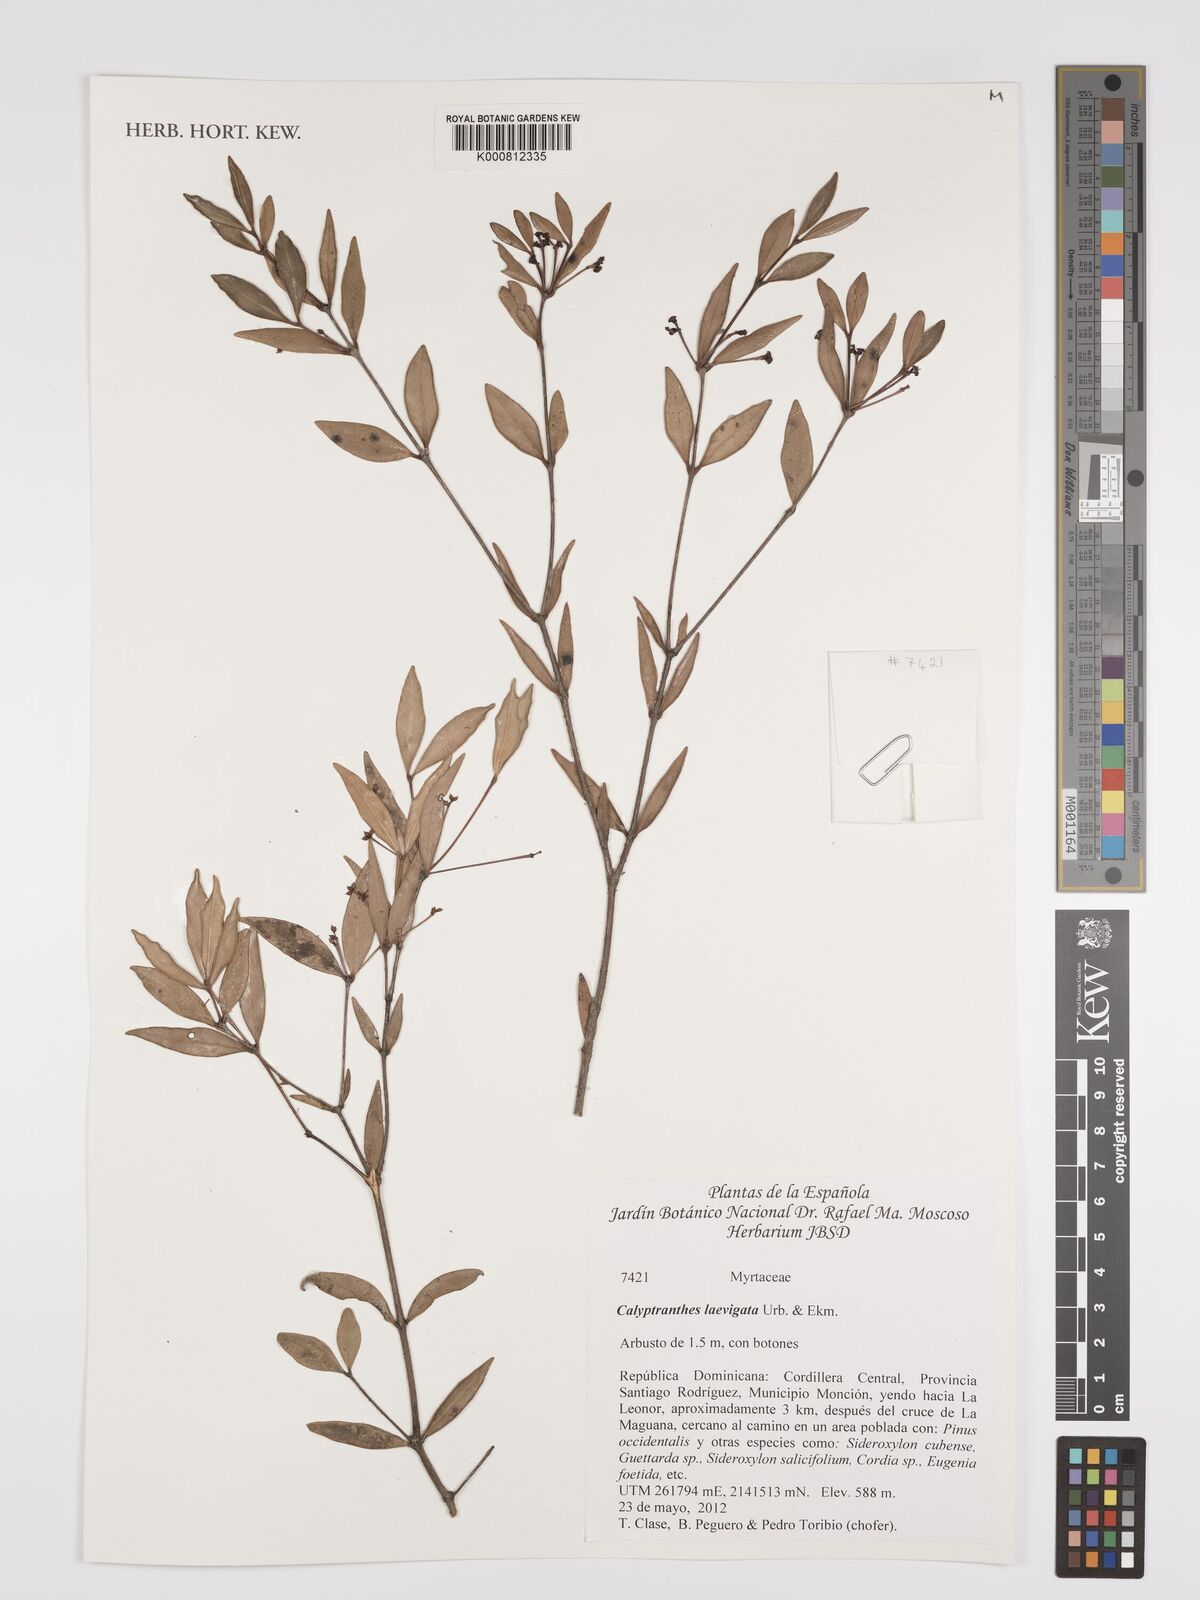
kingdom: Plantae
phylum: Tracheophyta
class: Magnoliopsida
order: Myrtales
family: Myrtaceae
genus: Myrcia
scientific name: Myrcia neolaevigata
